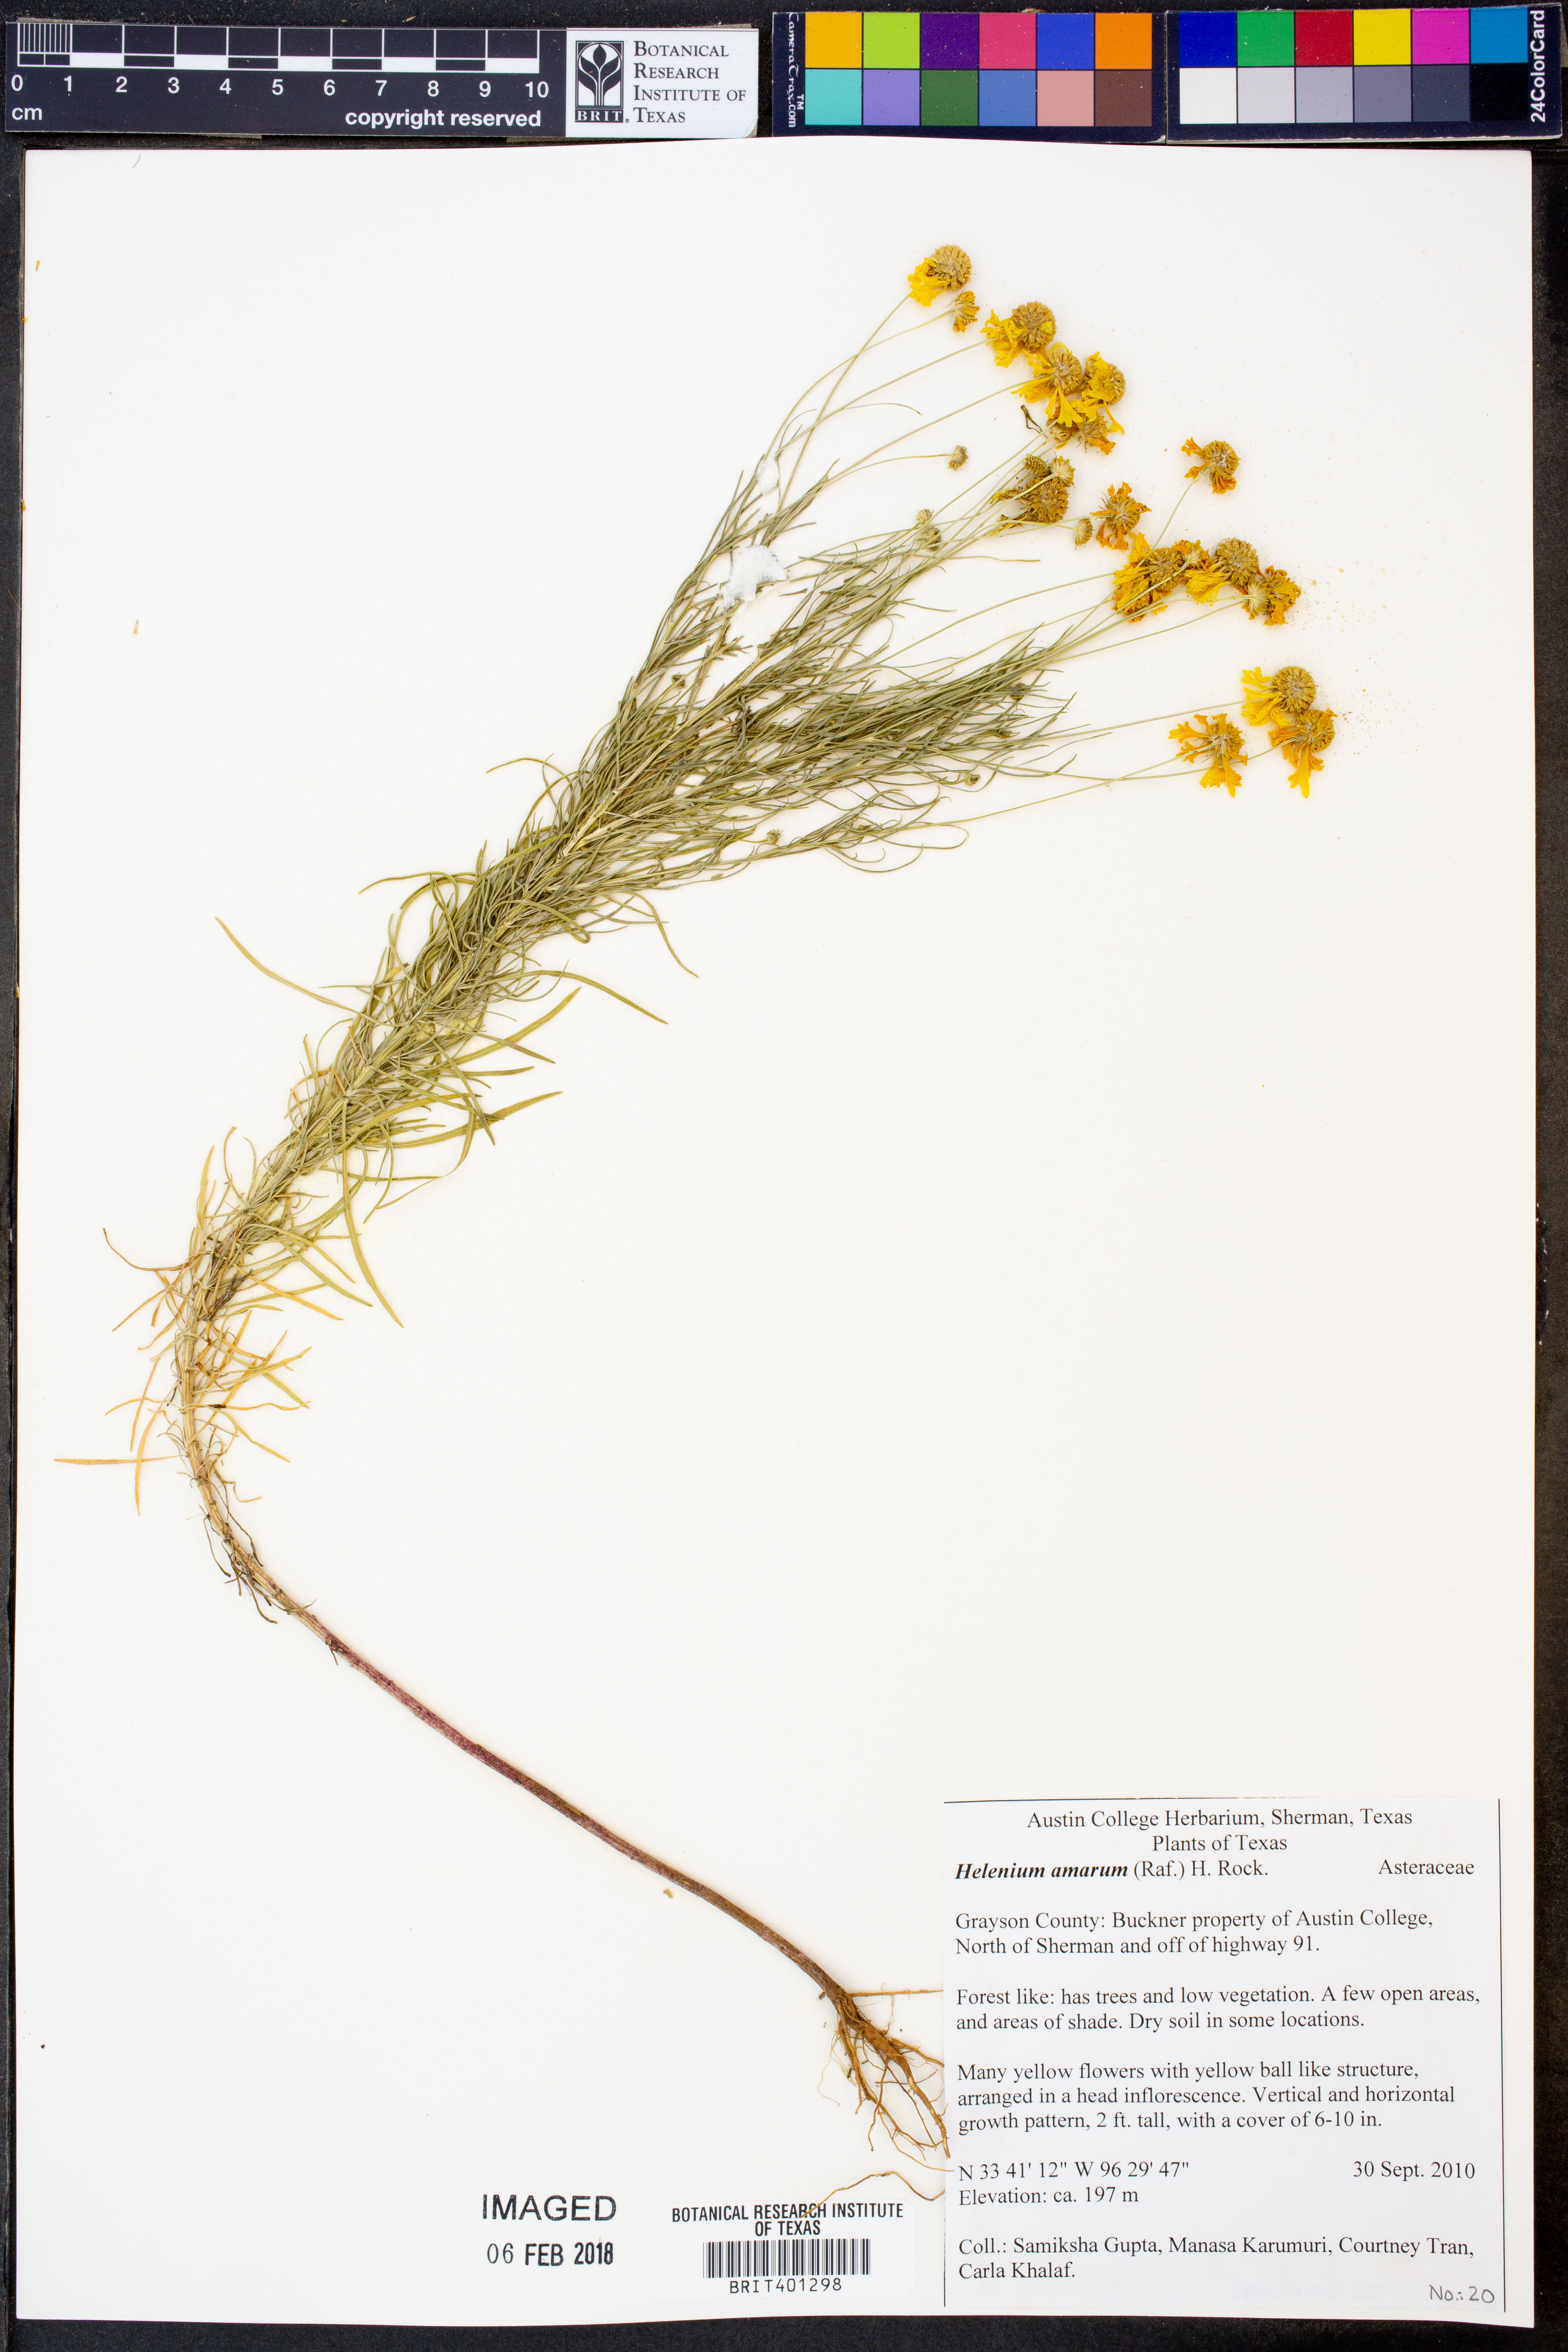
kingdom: Plantae
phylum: Tracheophyta
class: Magnoliopsida
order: Asterales
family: Asteraceae
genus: Helenium
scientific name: Helenium amarum
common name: Bitter sneezeweed
